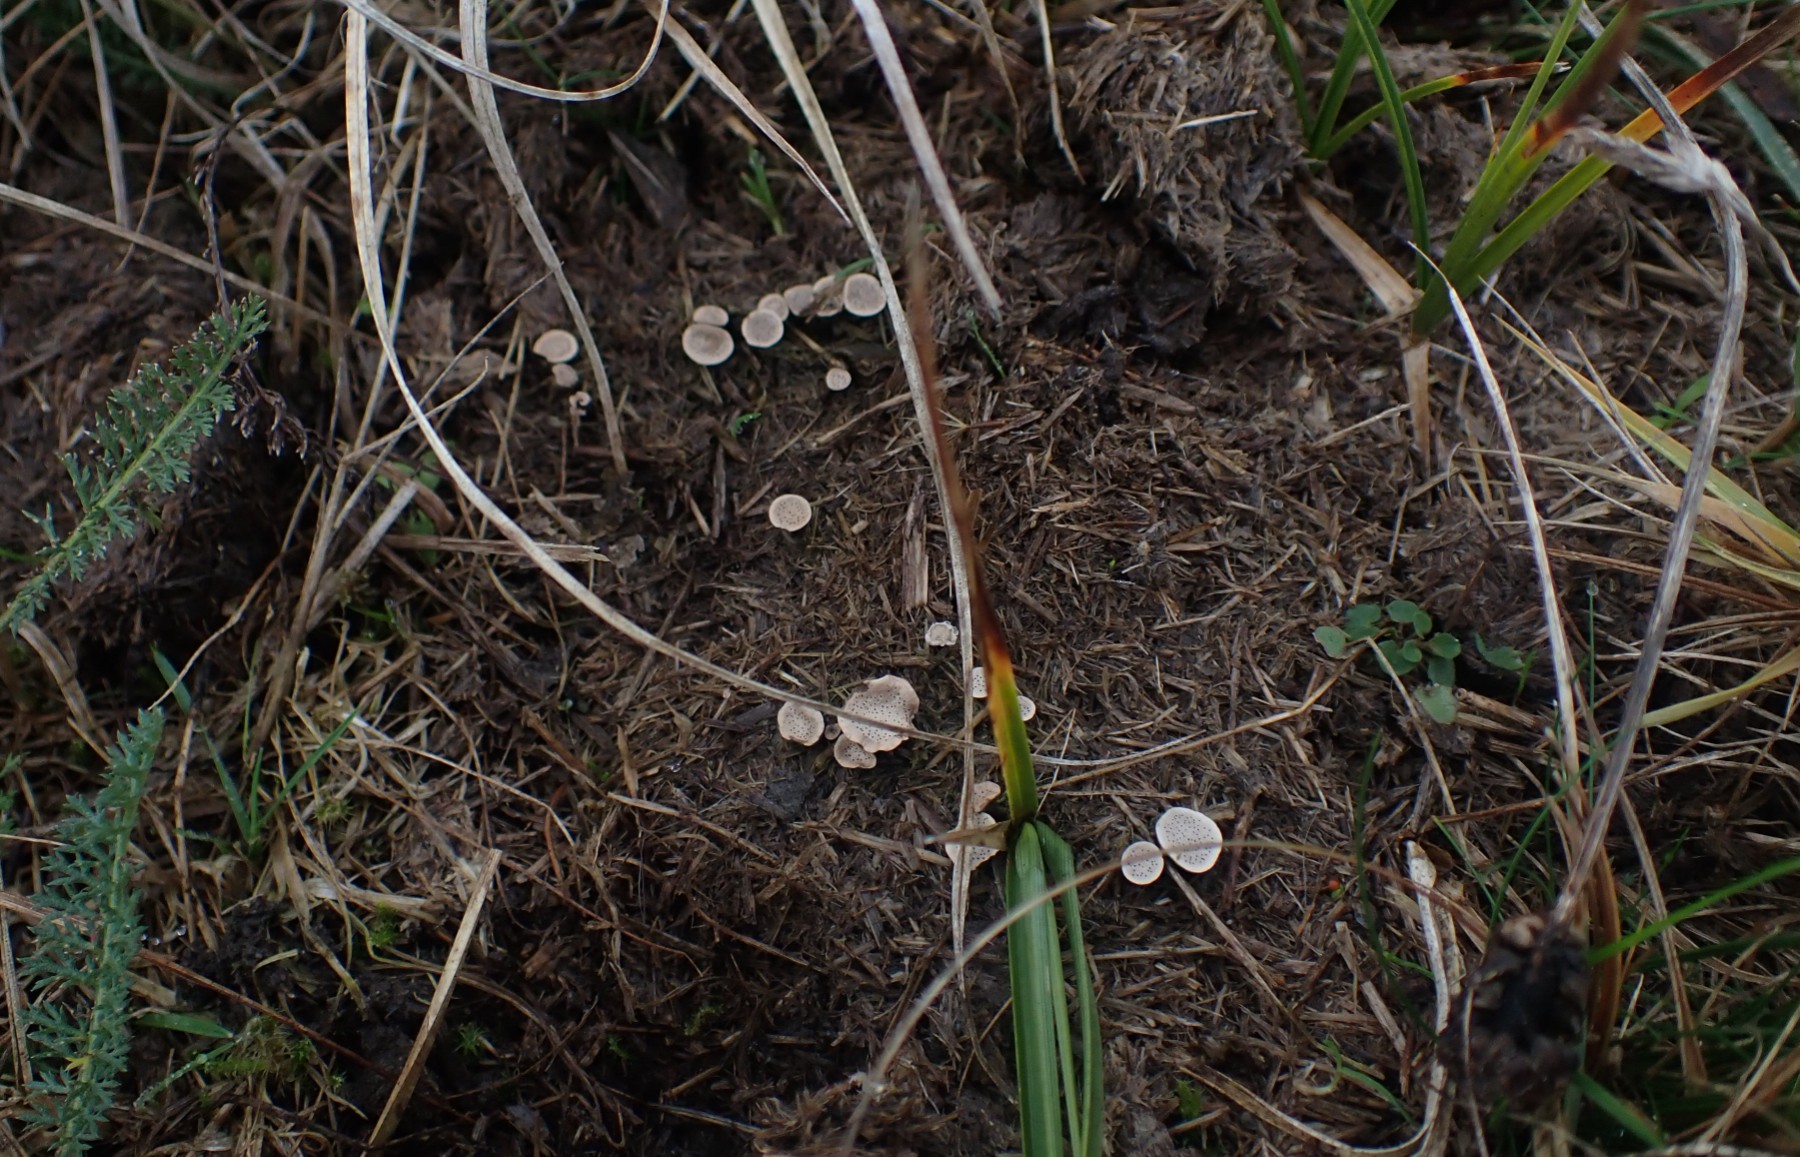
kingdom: Fungi
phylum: Ascomycota
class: Sordariomycetes
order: Xylariales
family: Xylariaceae
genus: Poronia
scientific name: Poronia punctata
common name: stor priksvamp
